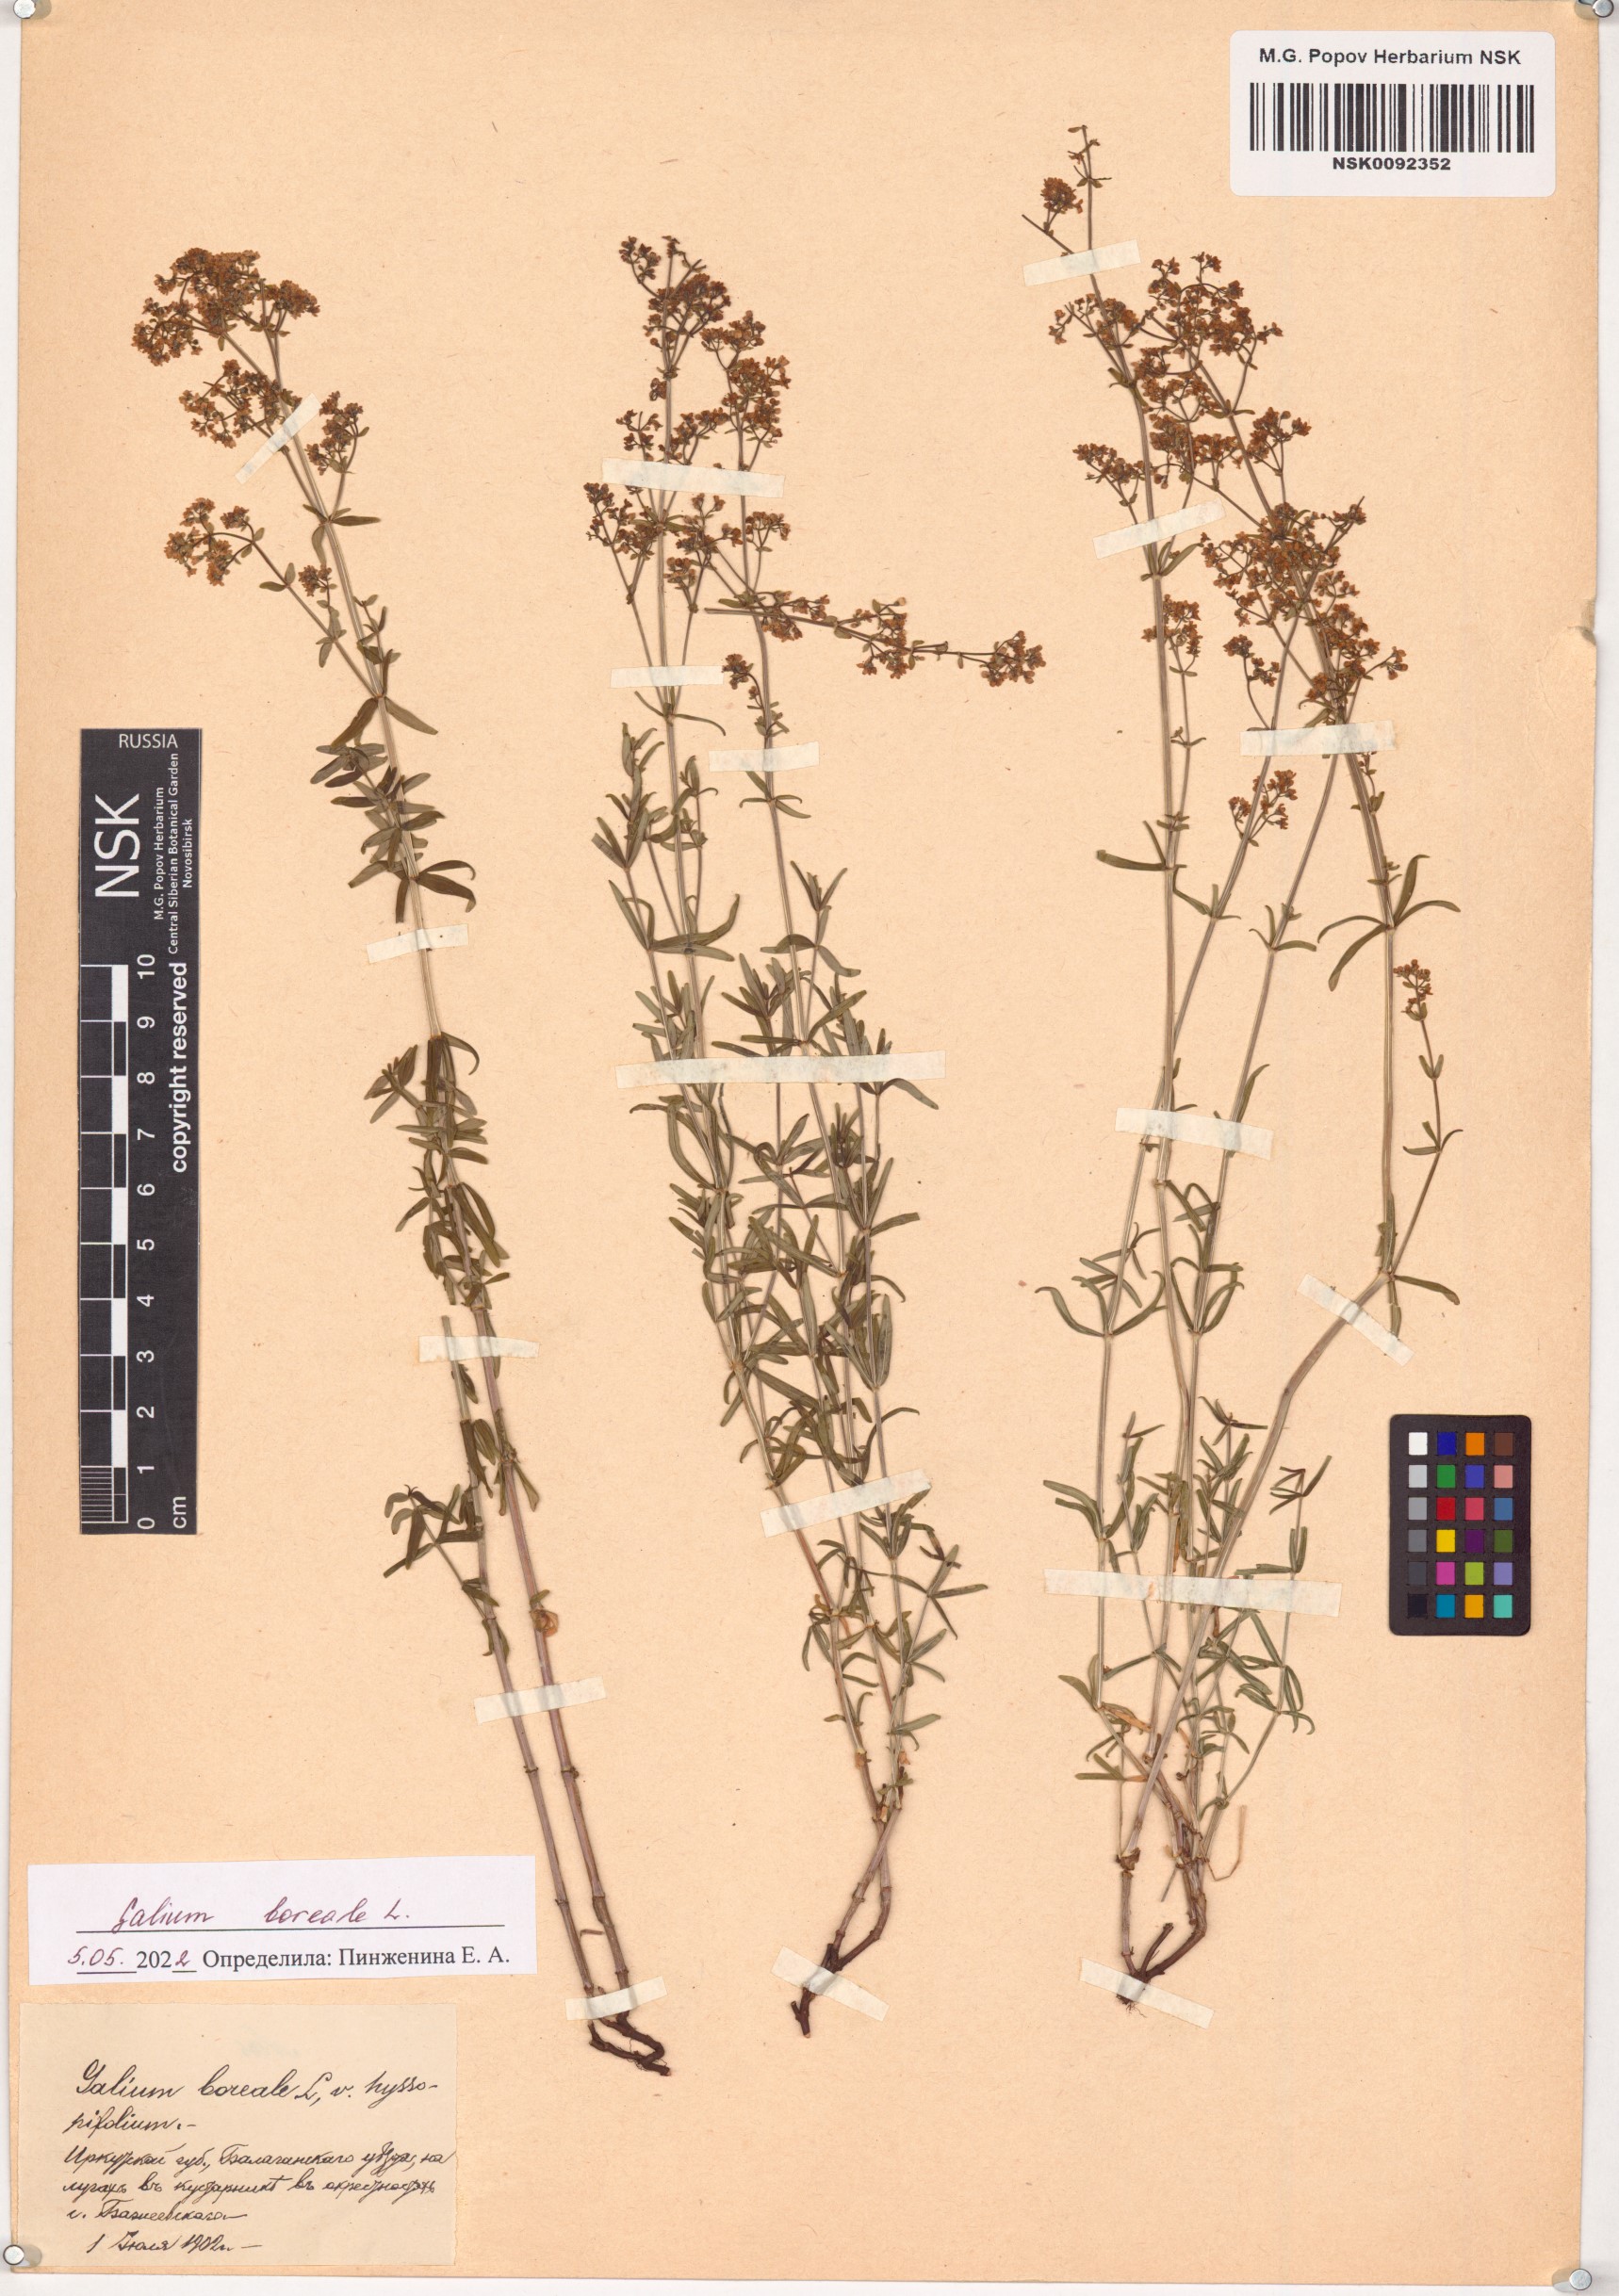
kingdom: Plantae
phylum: Tracheophyta
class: Magnoliopsida
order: Gentianales
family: Rubiaceae
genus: Galium
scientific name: Galium boreale
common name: Northern bedstraw
